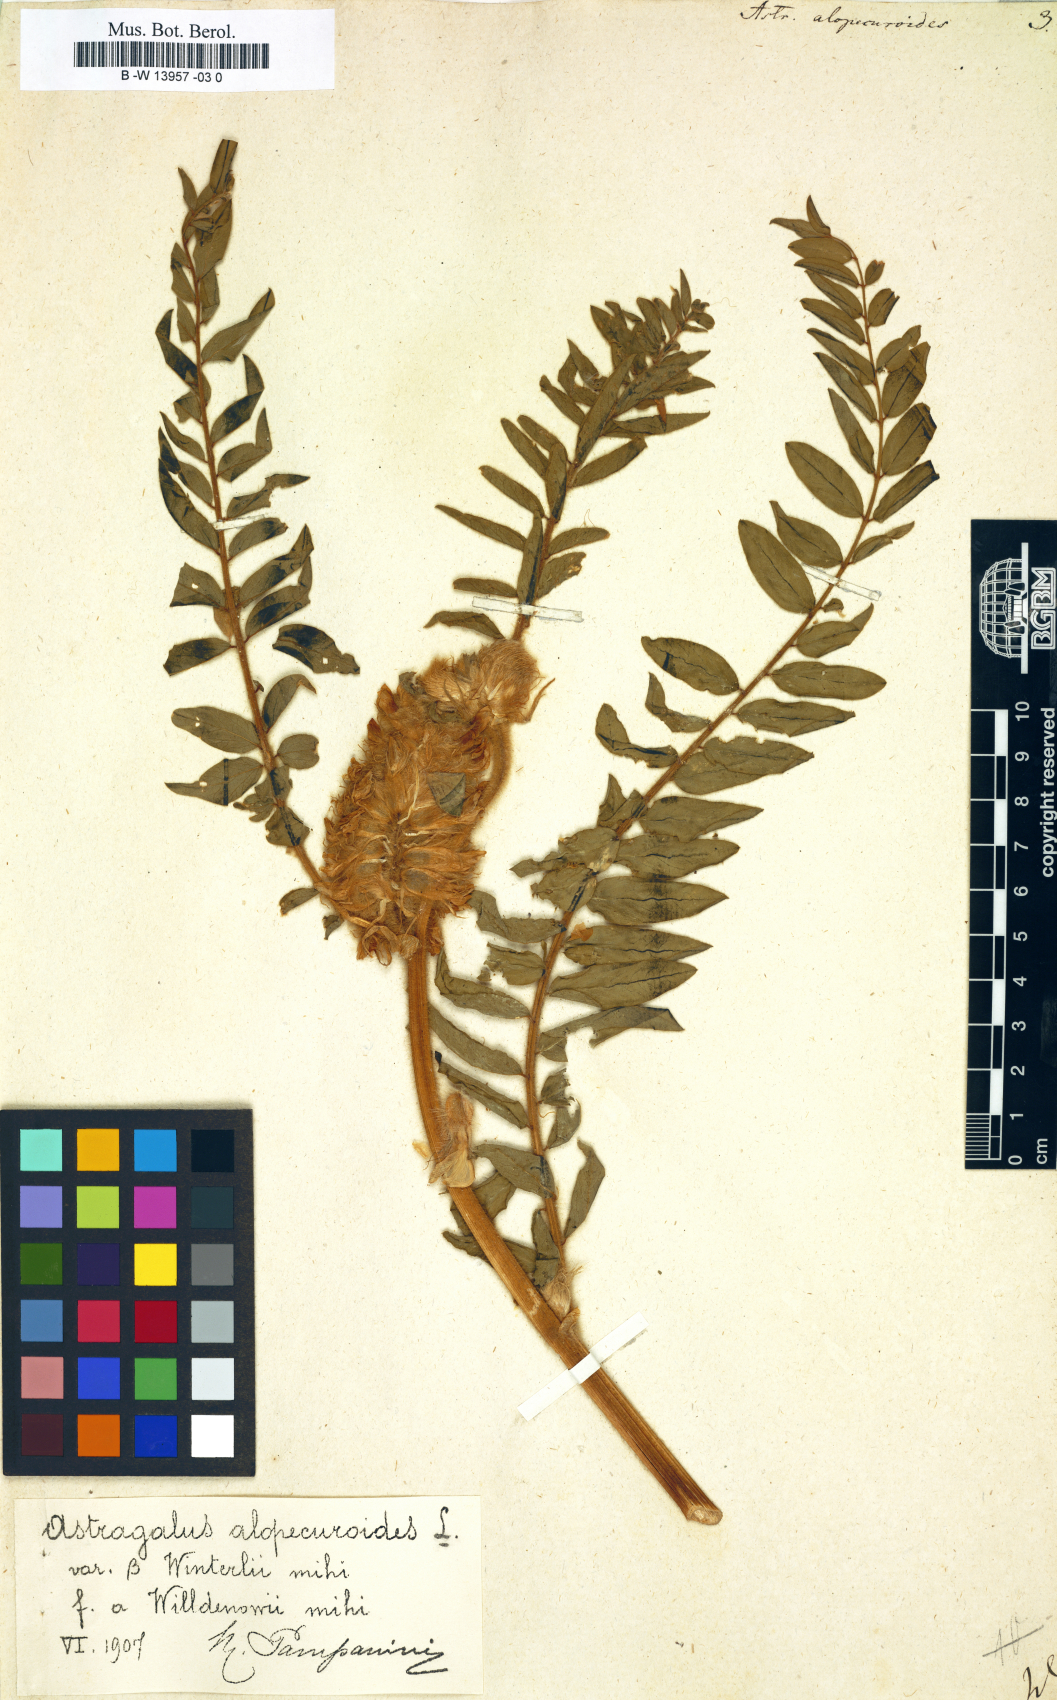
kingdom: Plantae
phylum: Tracheophyta
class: Magnoliopsida
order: Fabales
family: Fabaceae
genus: Astragalus
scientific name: Astragalus alopecuroides
